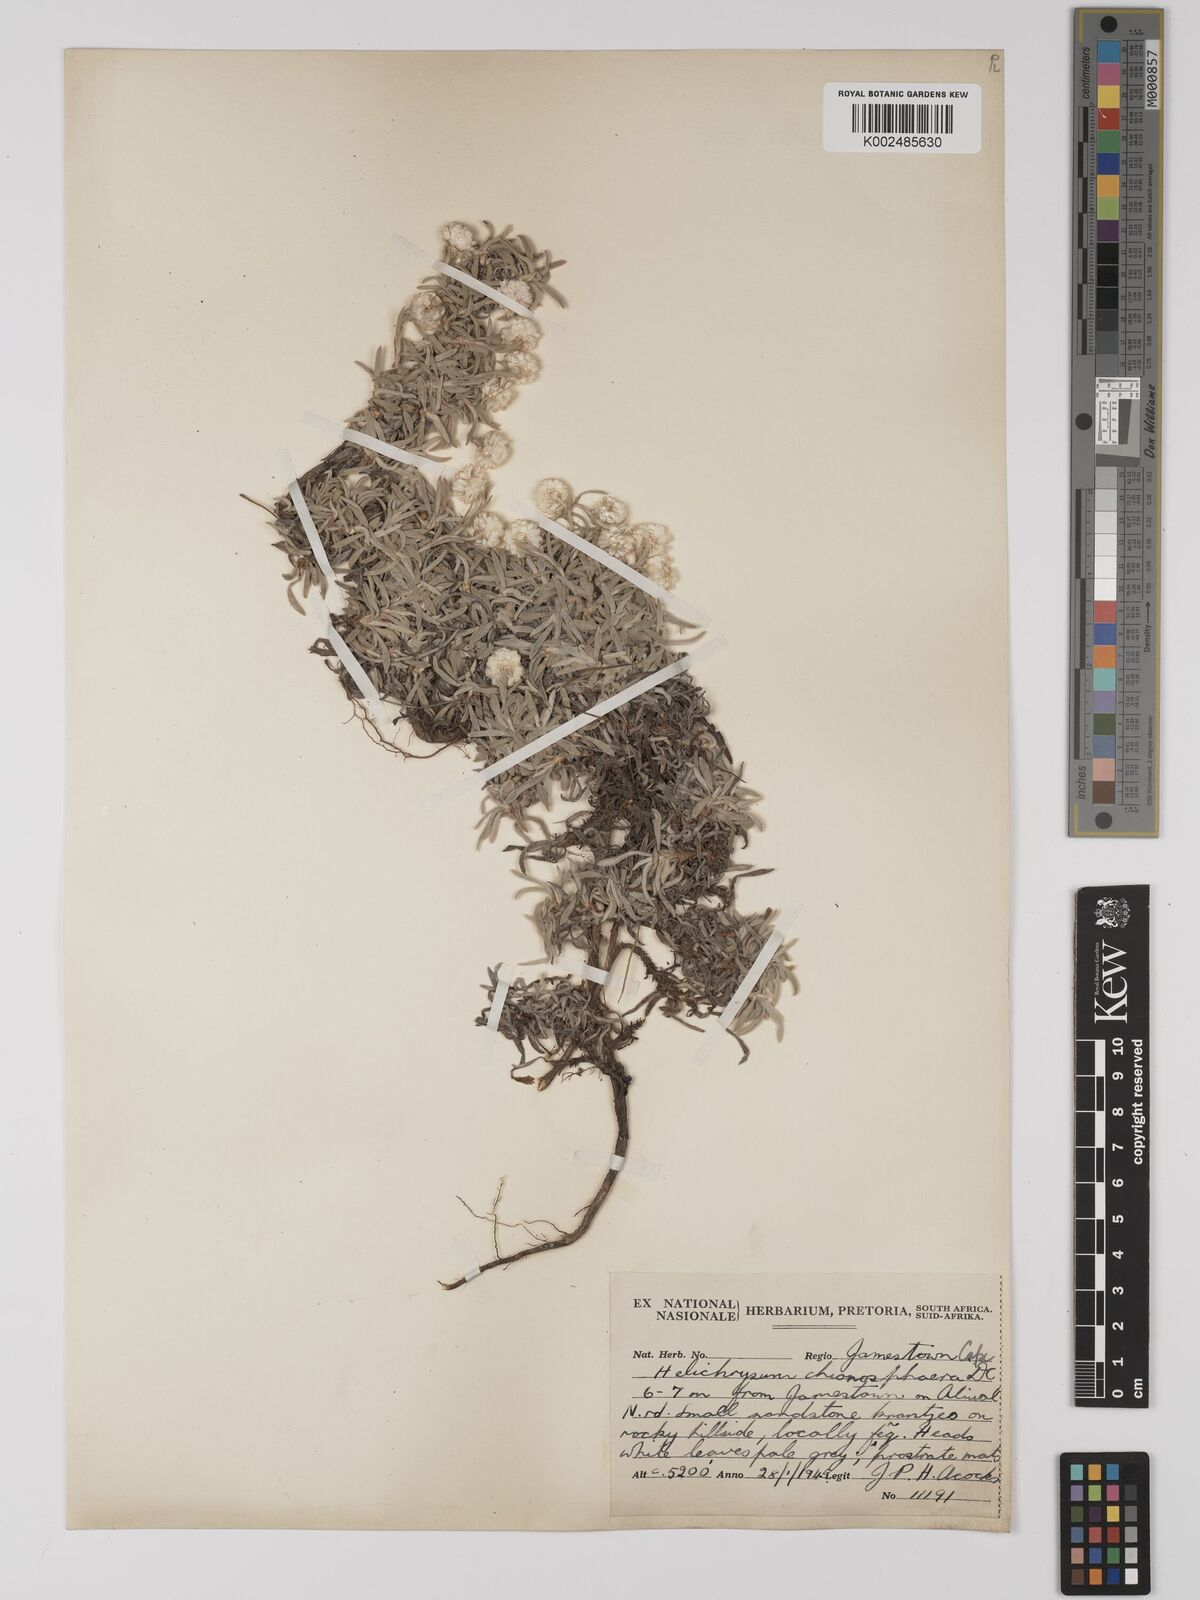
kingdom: Plantae
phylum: Tracheophyta
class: Magnoliopsida
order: Asterales
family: Asteraceae
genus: Helichrysum
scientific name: Helichrysum chionosphaerum
